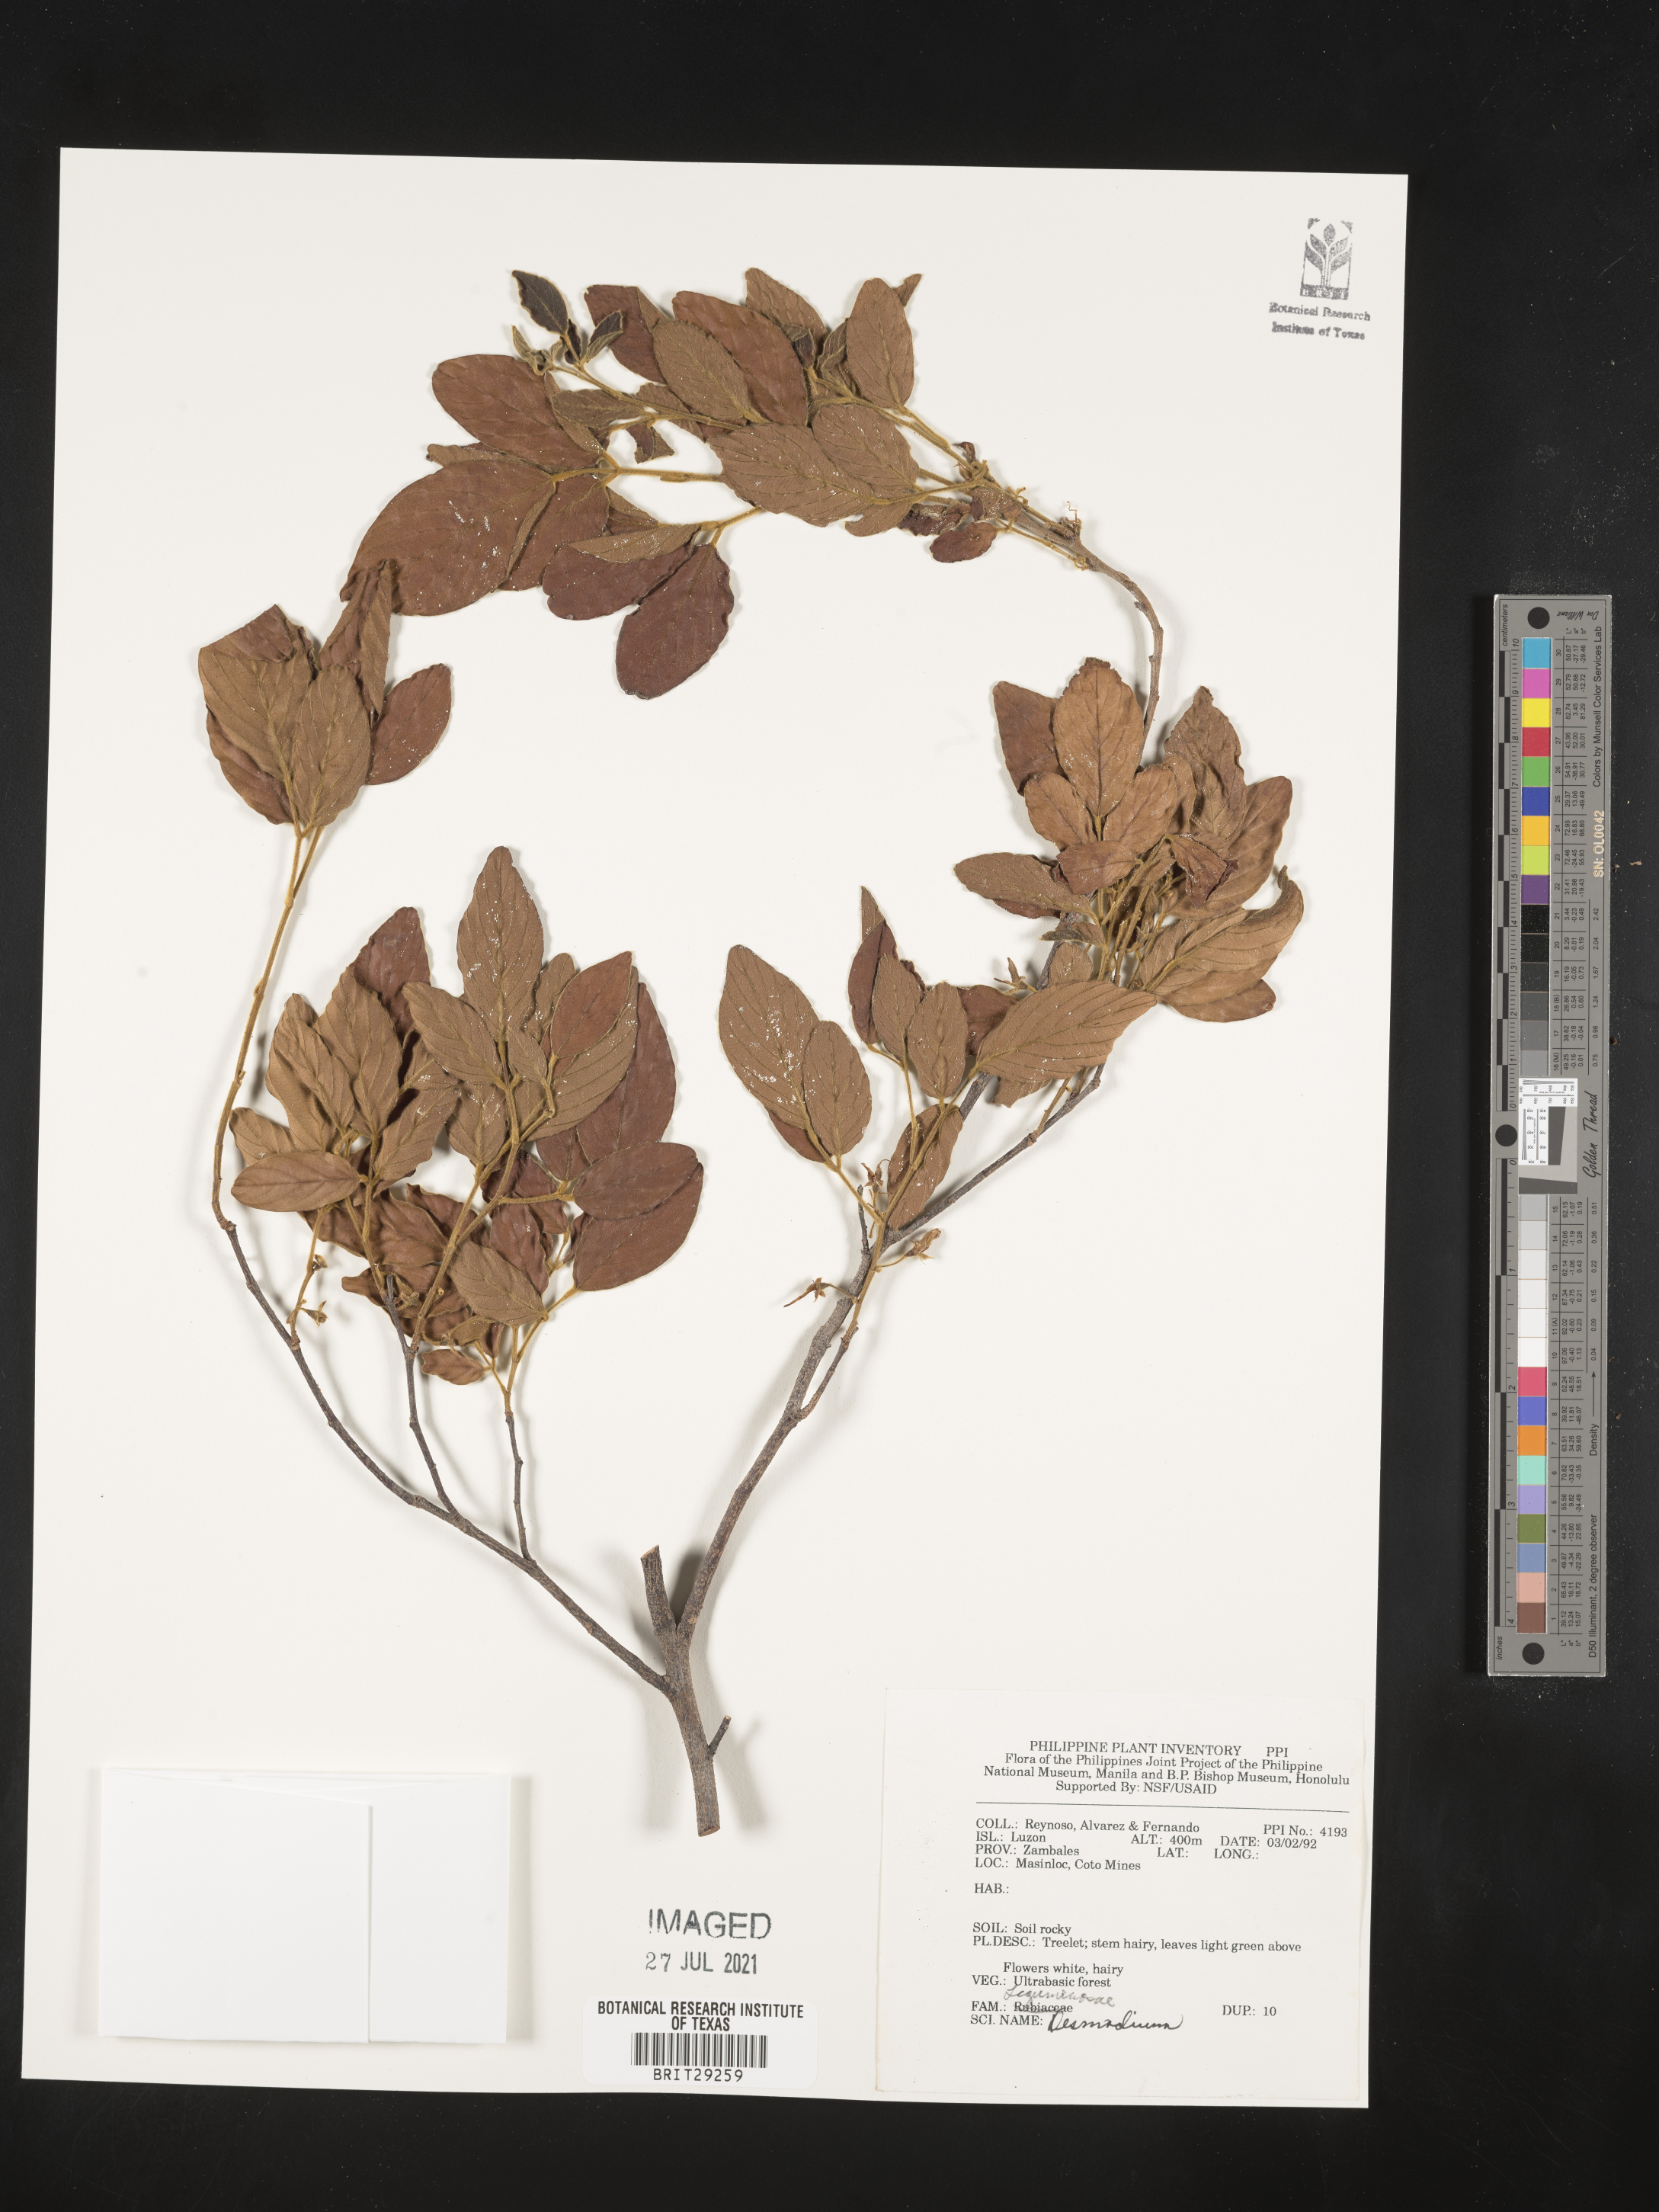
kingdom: Plantae
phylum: Tracheophyta
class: Magnoliopsida
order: Fabales
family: Fabaceae
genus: Desmodium
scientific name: Desmodium
